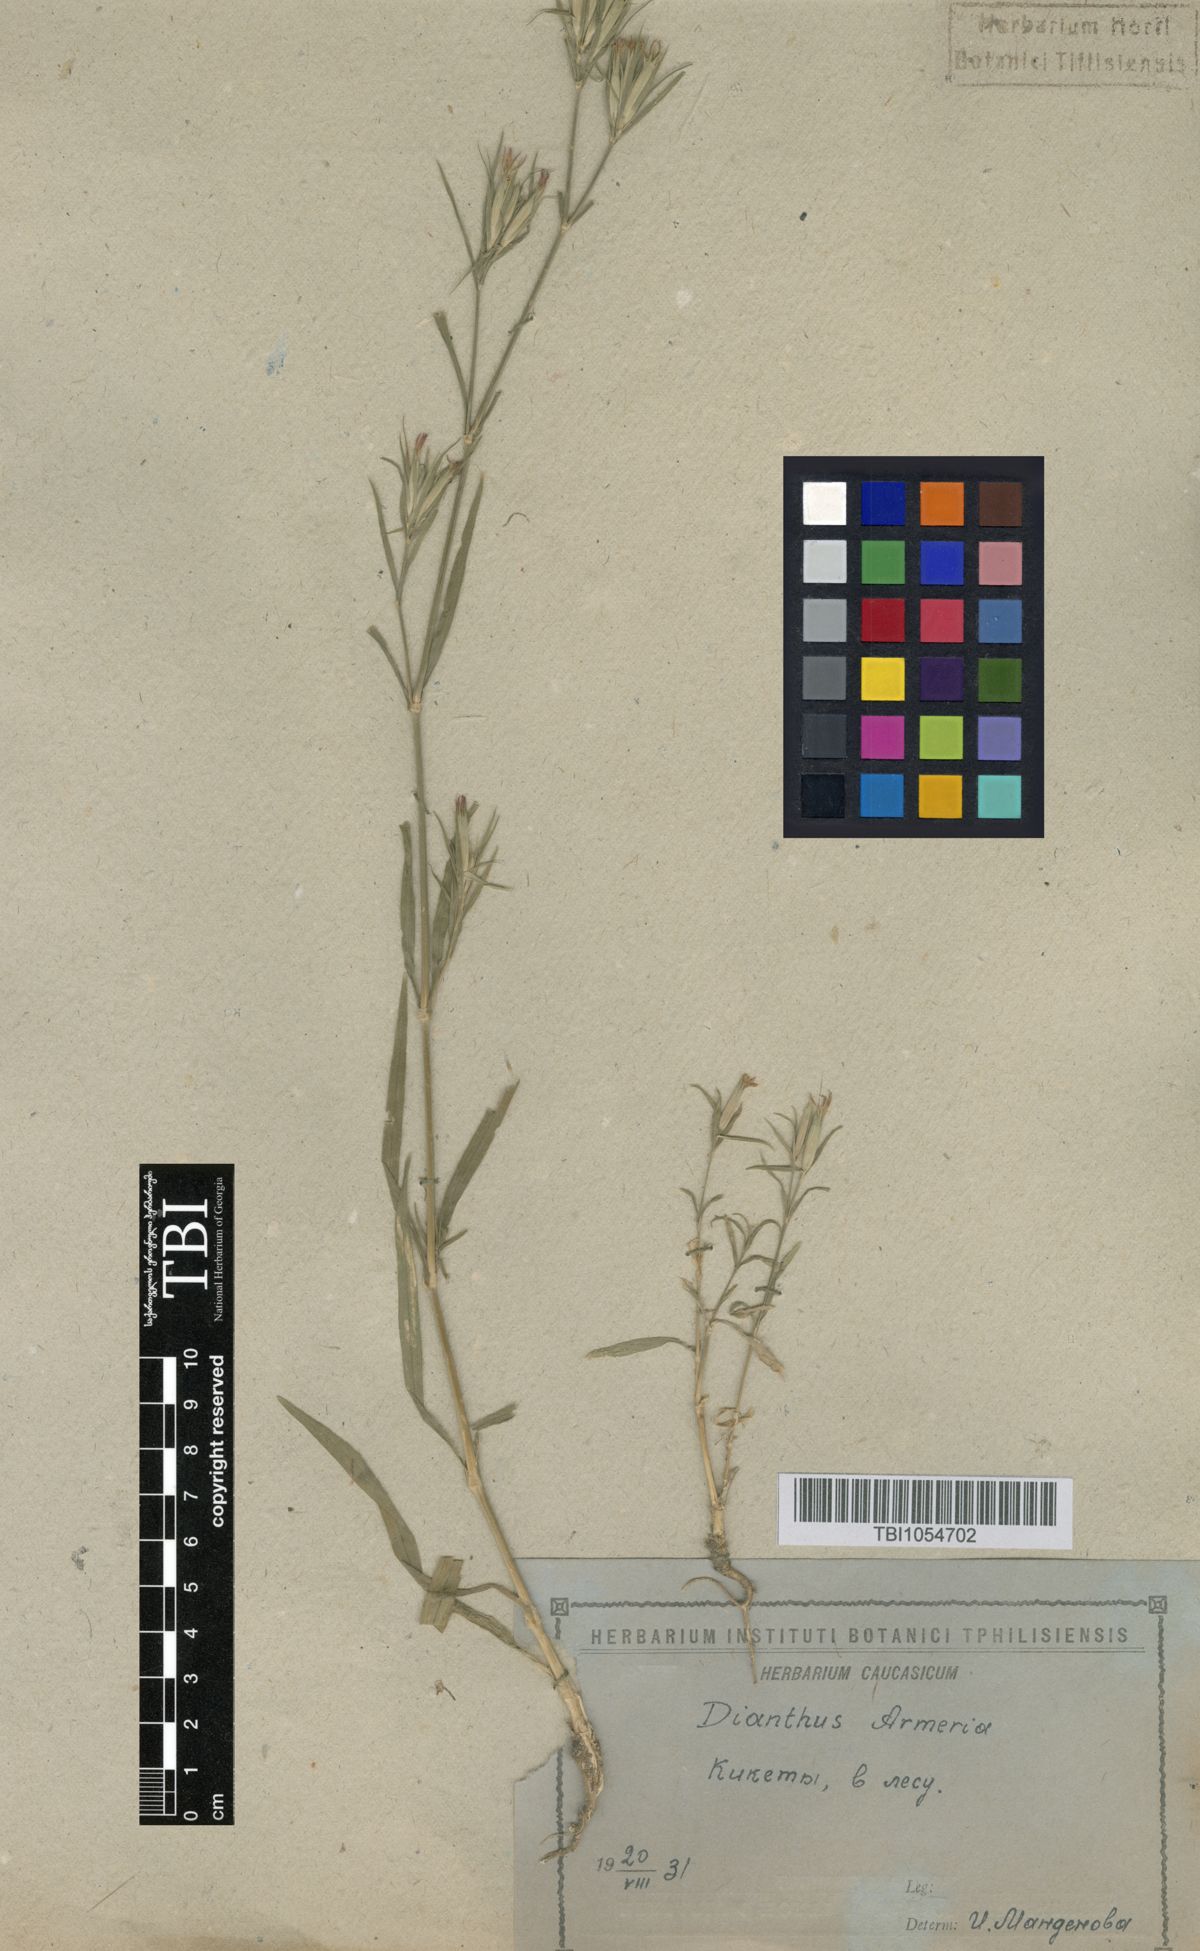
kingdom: Plantae
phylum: Tracheophyta
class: Magnoliopsida
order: Caryophyllales
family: Caryophyllaceae
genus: Dianthus
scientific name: Dianthus armeria
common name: Deptford pink
